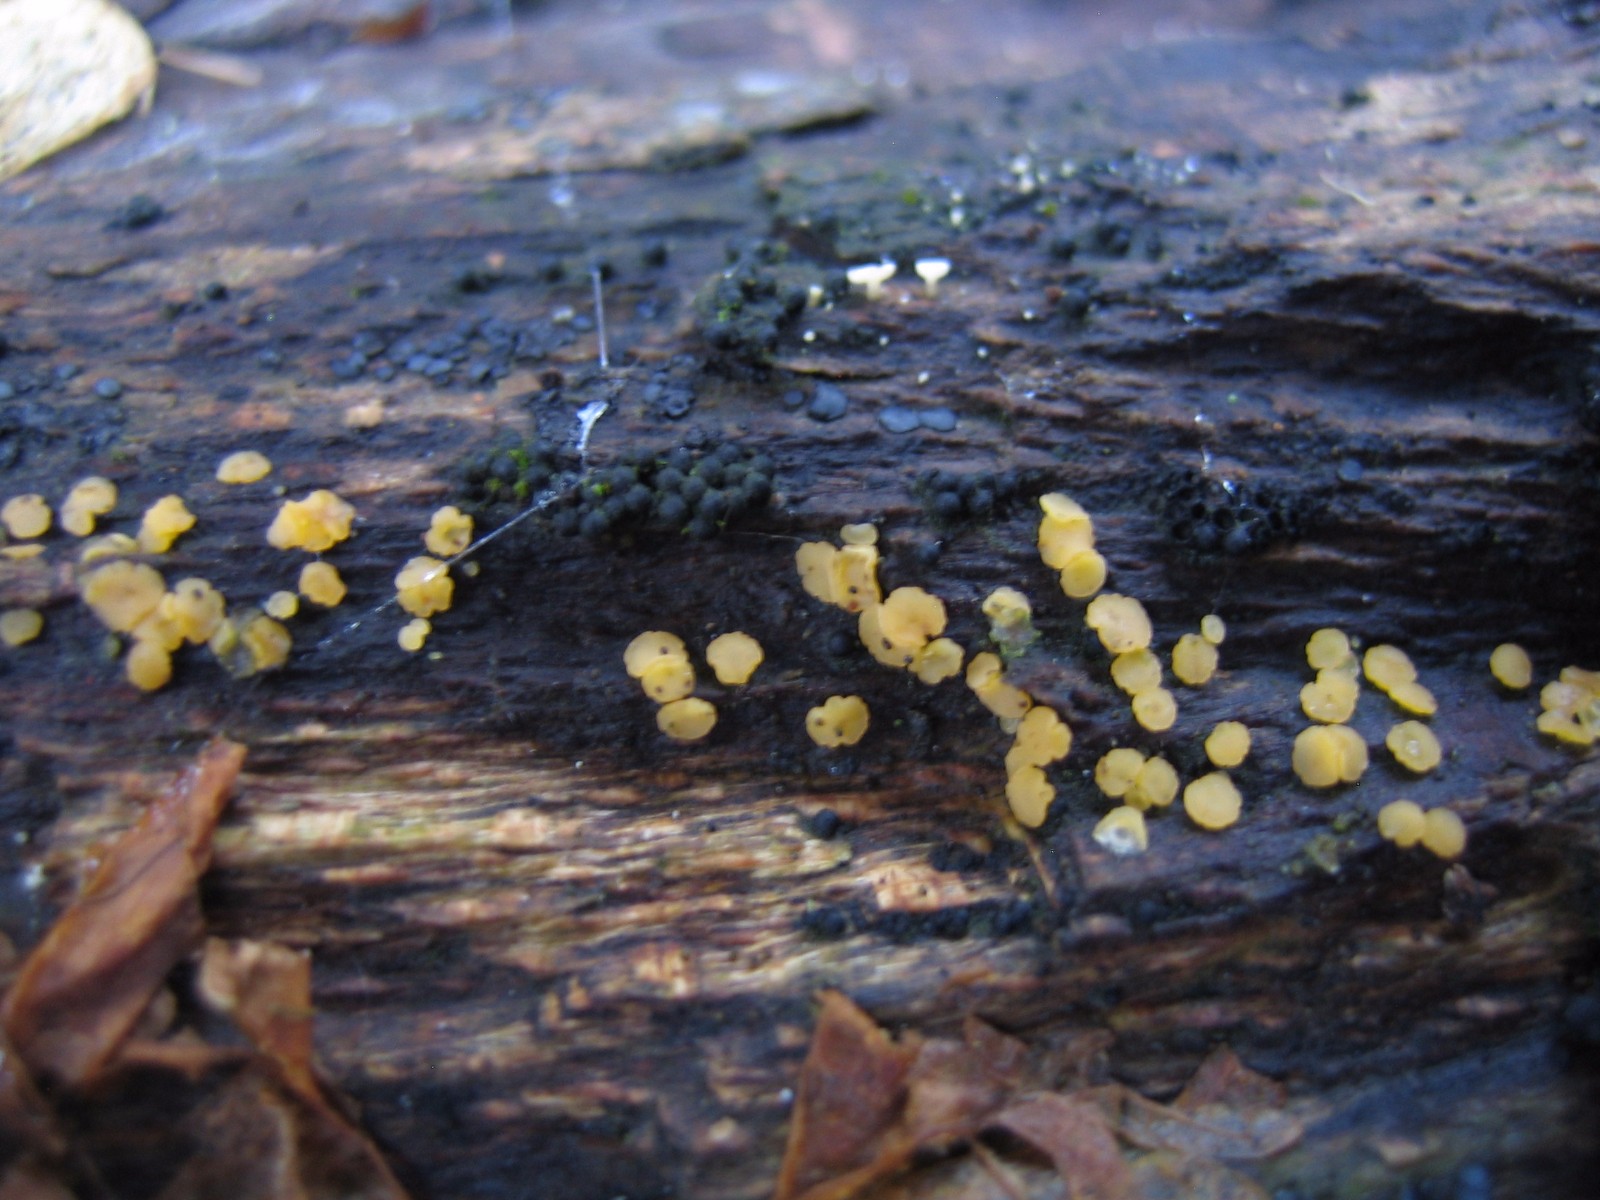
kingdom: Fungi
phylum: Ascomycota
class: Leotiomycetes
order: Helotiales
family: Pezizellaceae
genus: Calycina
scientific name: Calycina
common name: gulskive
